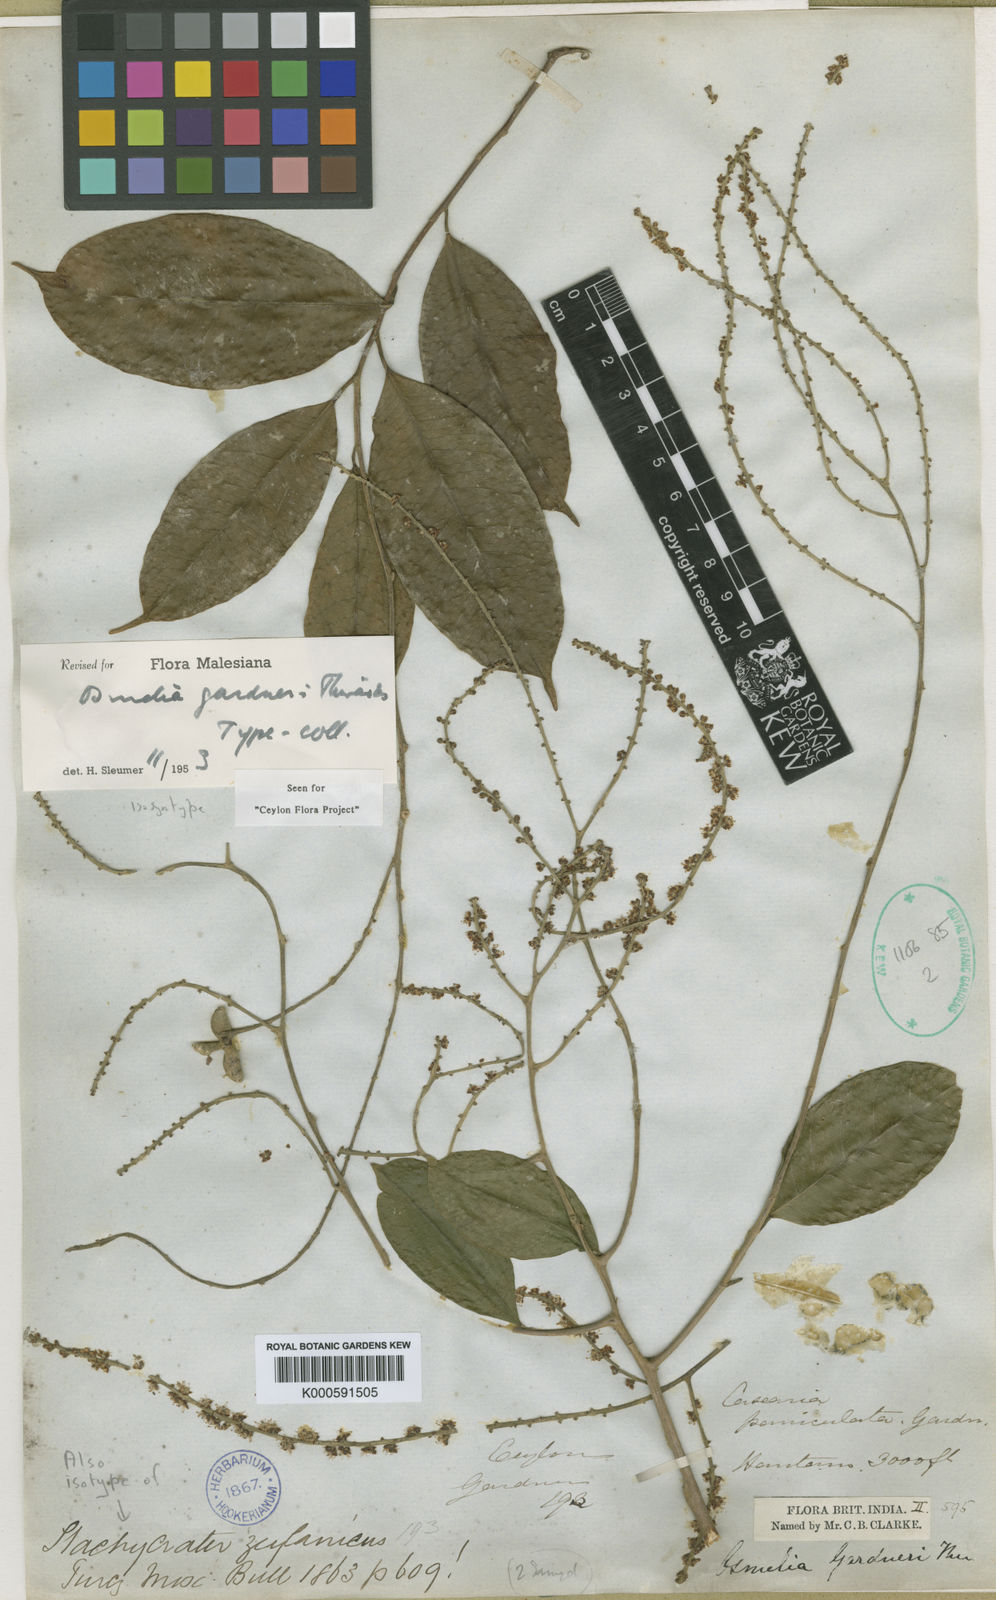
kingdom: Plantae
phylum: Tracheophyta
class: Magnoliopsida
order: Malpighiales
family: Salicaceae
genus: Osmelia
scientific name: Osmelia gardneri
